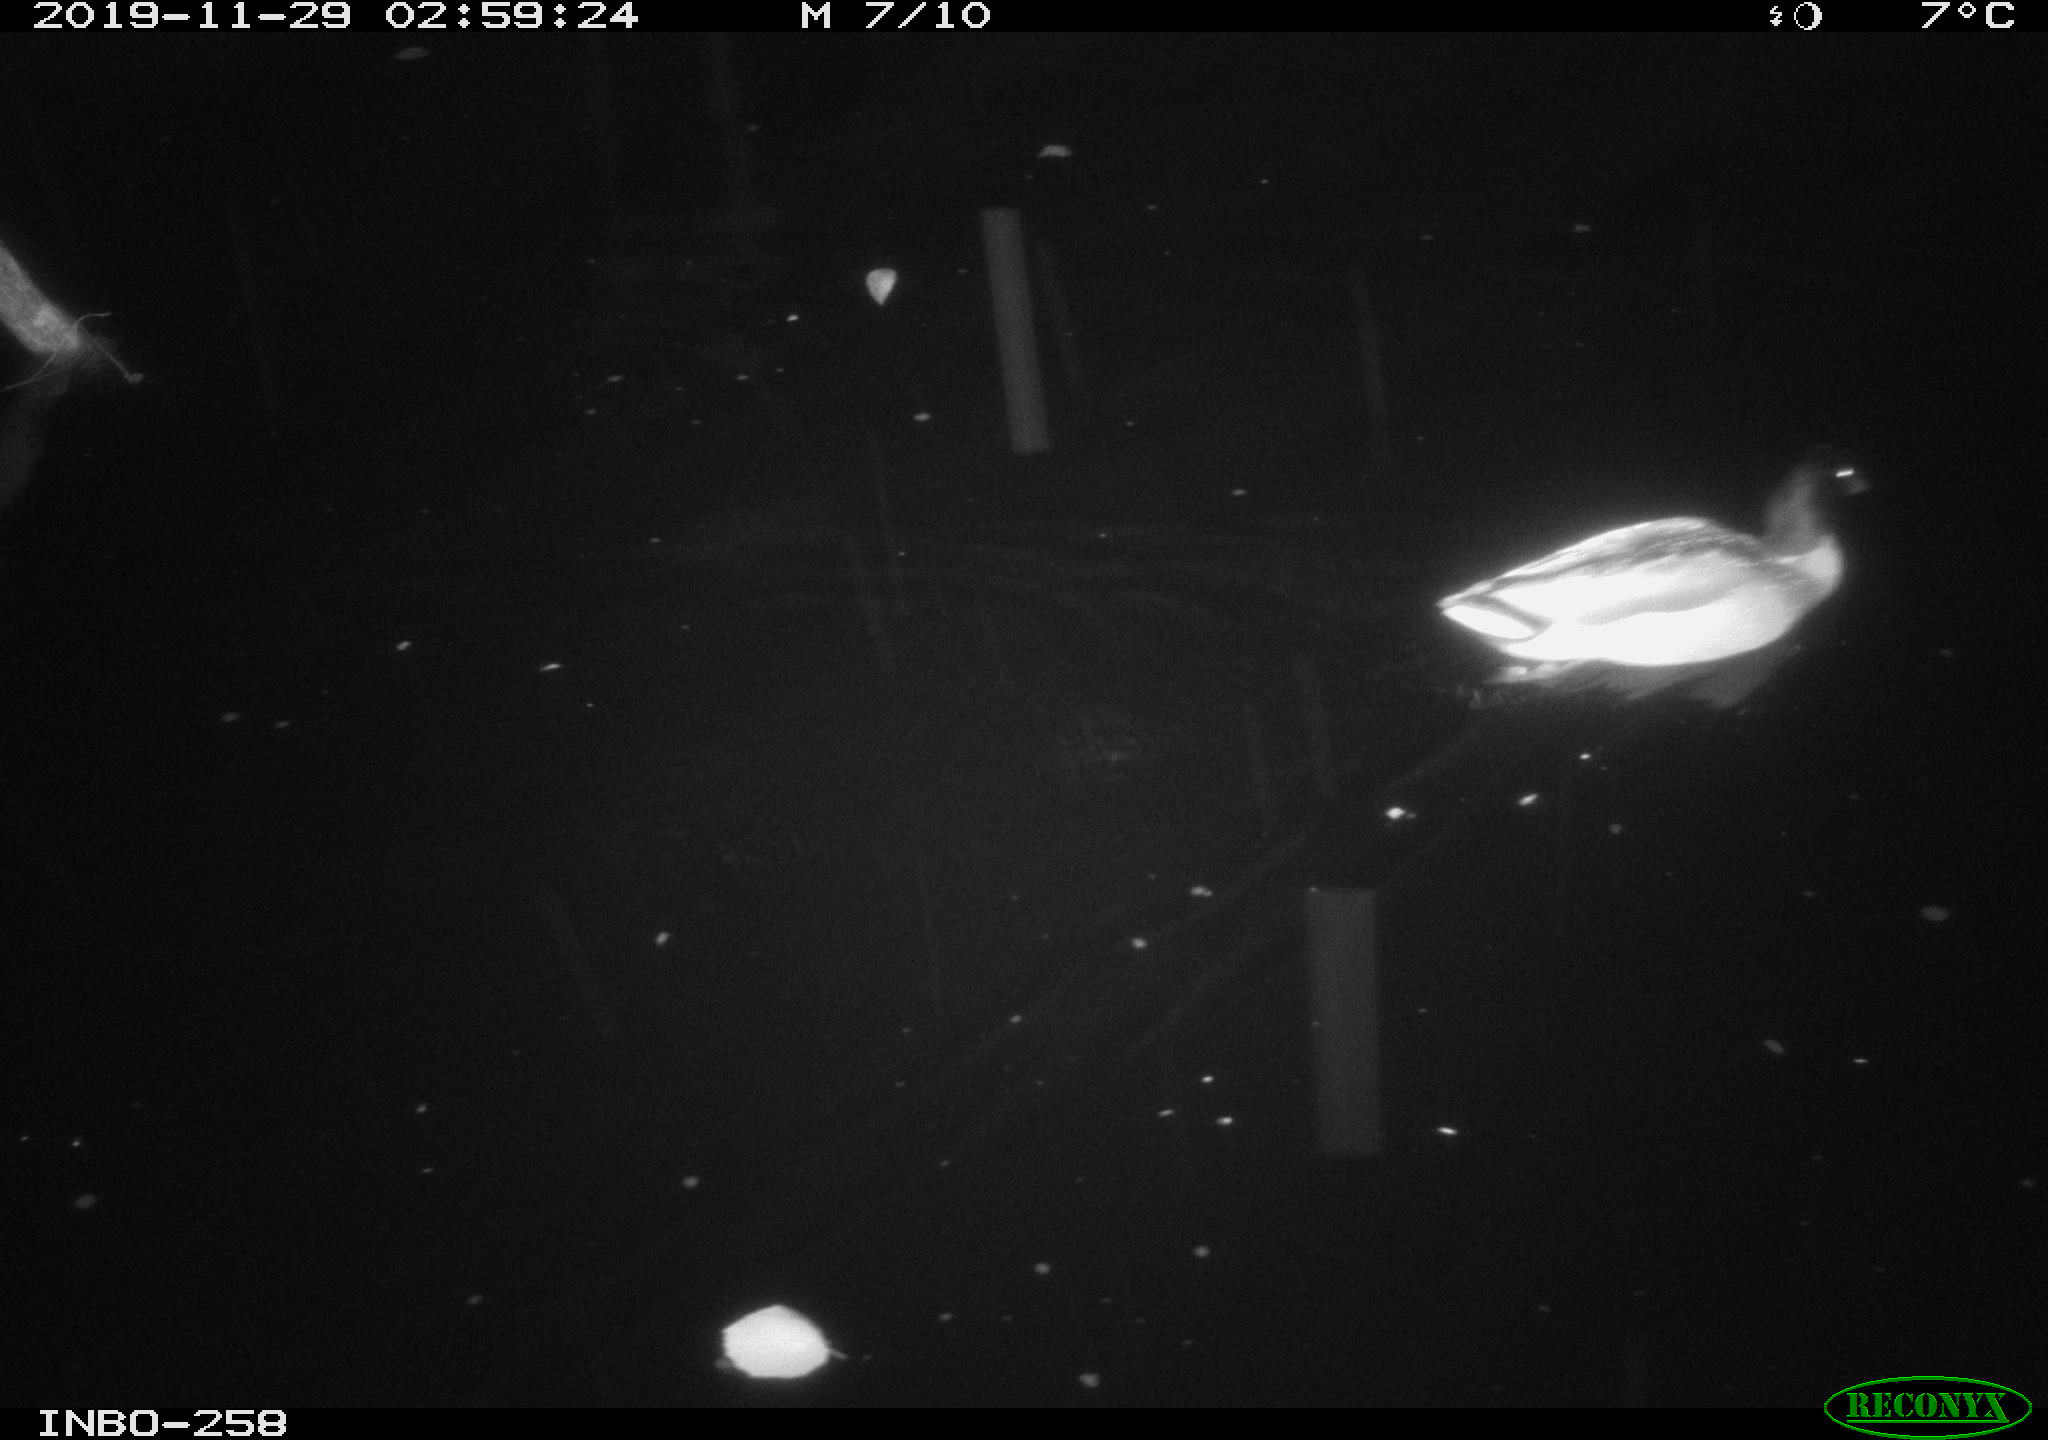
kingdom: Animalia
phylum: Chordata
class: Aves
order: Anseriformes
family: Anatidae
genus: Anas
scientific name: Anas platyrhynchos
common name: Mallard
